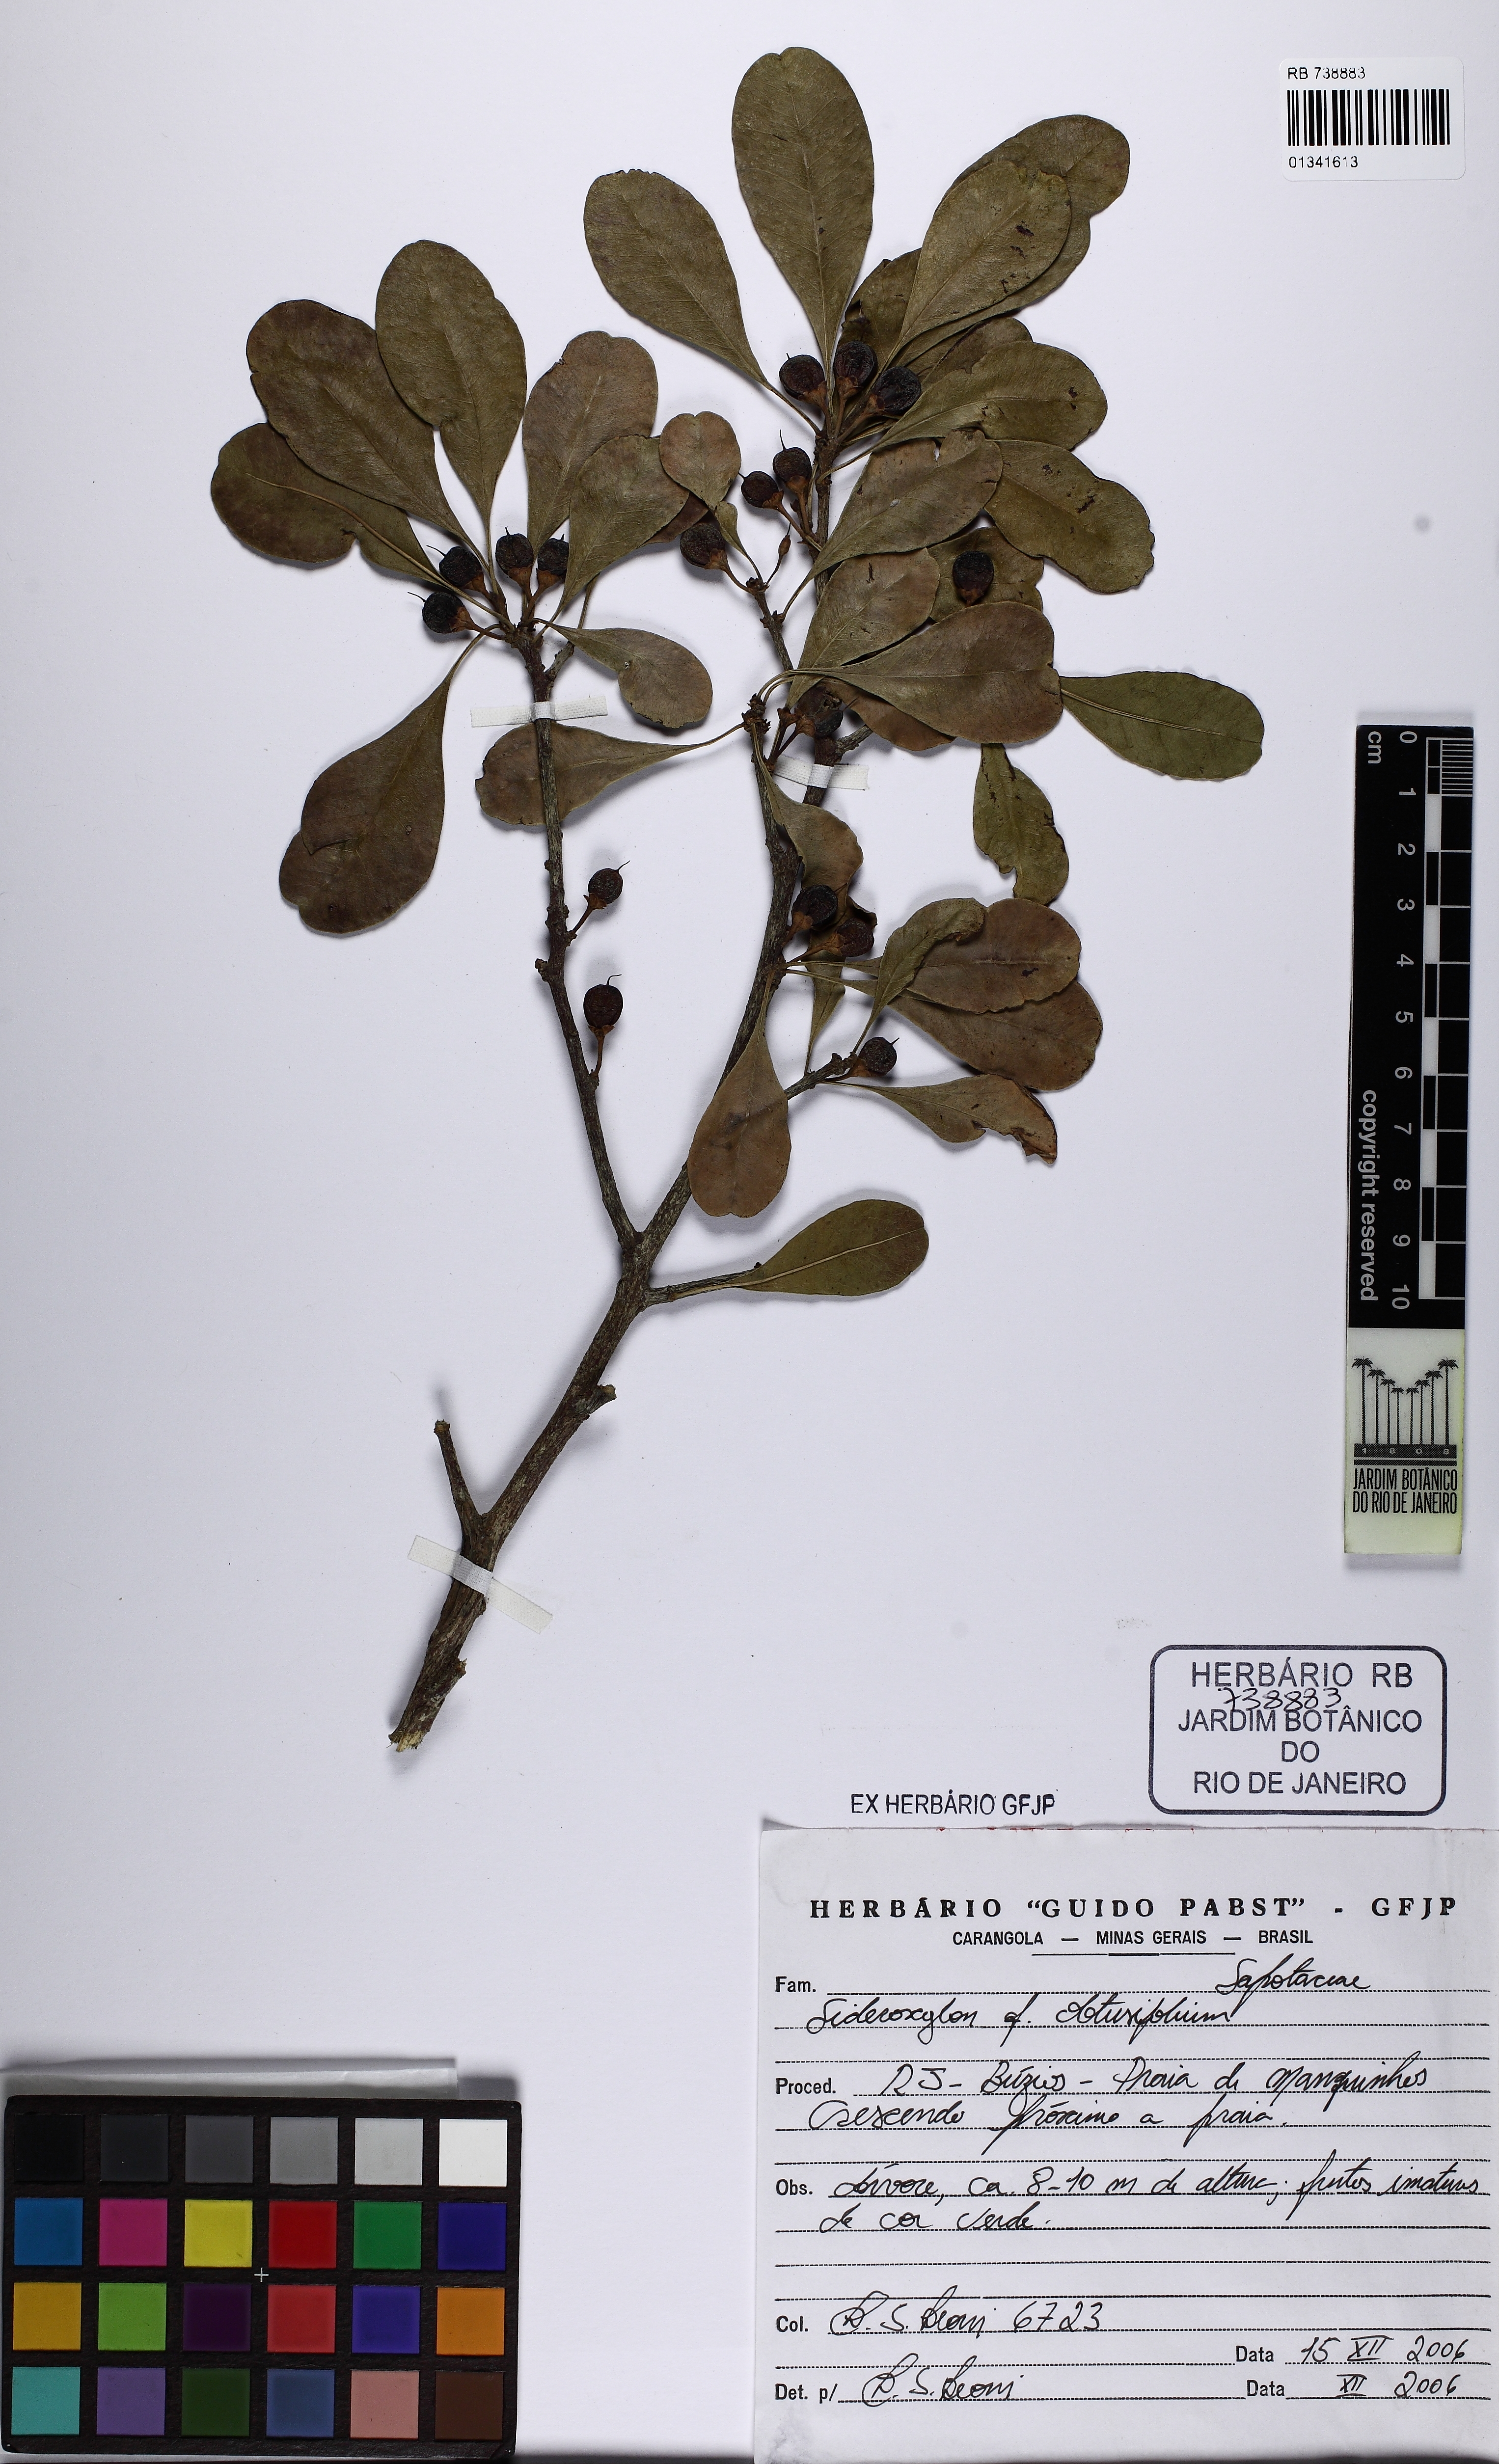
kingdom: Plantae
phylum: Tracheophyta
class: Magnoliopsida
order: Ericales
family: Sapotaceae
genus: Sideroxylon
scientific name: Sideroxylon obtusifolium
